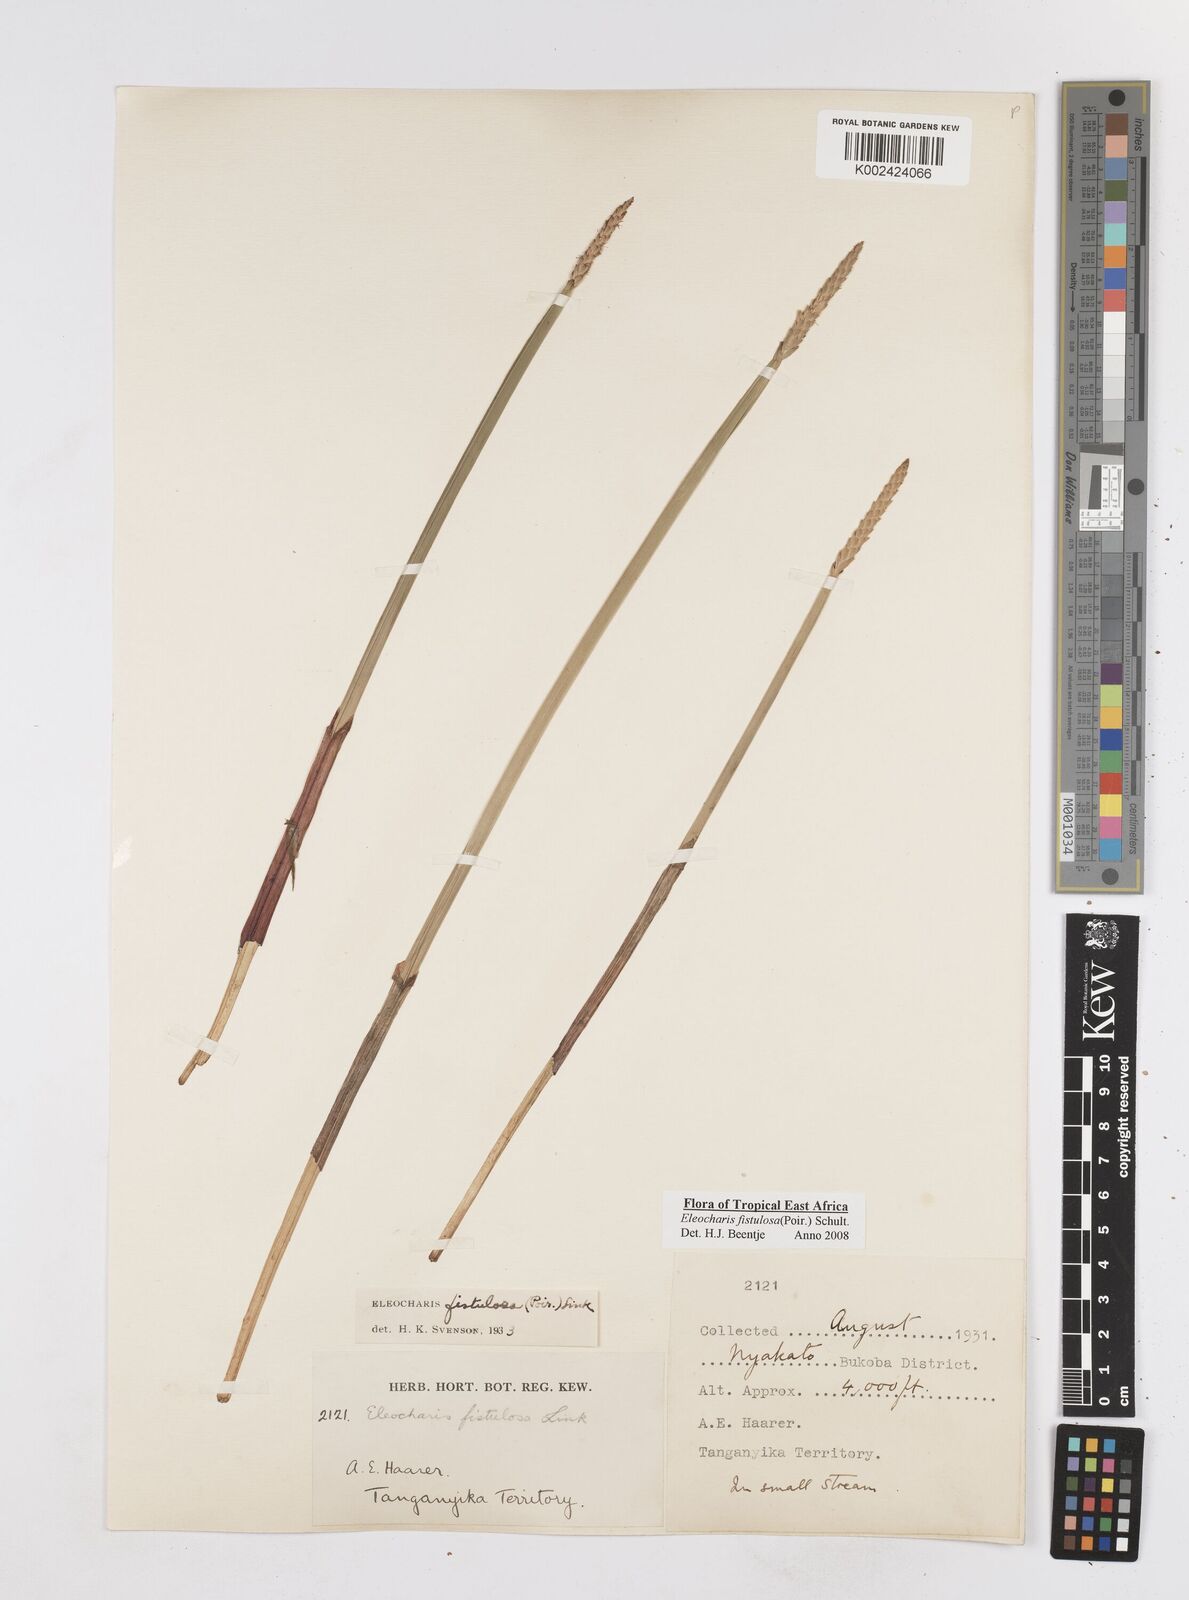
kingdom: Plantae
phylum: Tracheophyta
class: Liliopsida
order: Poales
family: Cyperaceae
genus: Eleocharis
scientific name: Eleocharis acutangula
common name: Acute spikerush
